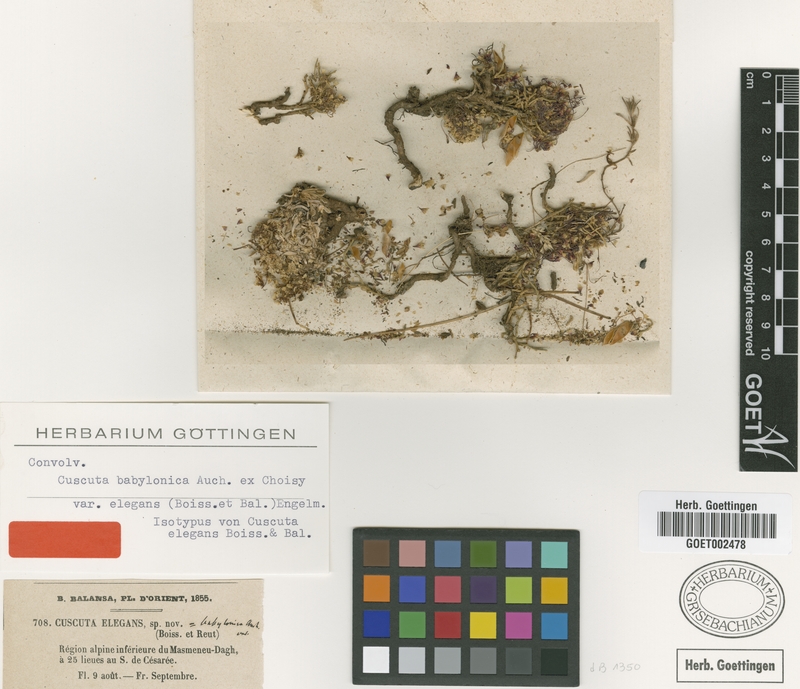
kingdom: Plantae
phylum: Tracheophyta
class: Magnoliopsida
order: Solanales
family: Convolvulaceae
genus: Cuscuta
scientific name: Cuscuta babylonica
